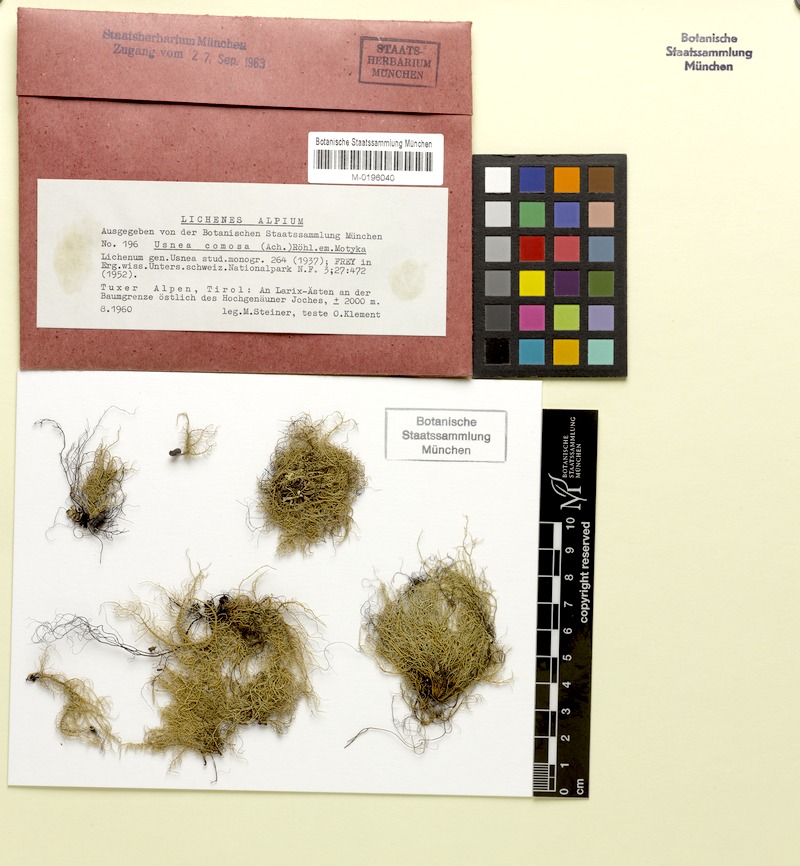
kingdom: Fungi
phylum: Ascomycota
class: Lecanoromycetes
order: Lecanorales
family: Parmeliaceae
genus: Usnea
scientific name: Usnea subfloridana
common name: Boreal beard lichen
